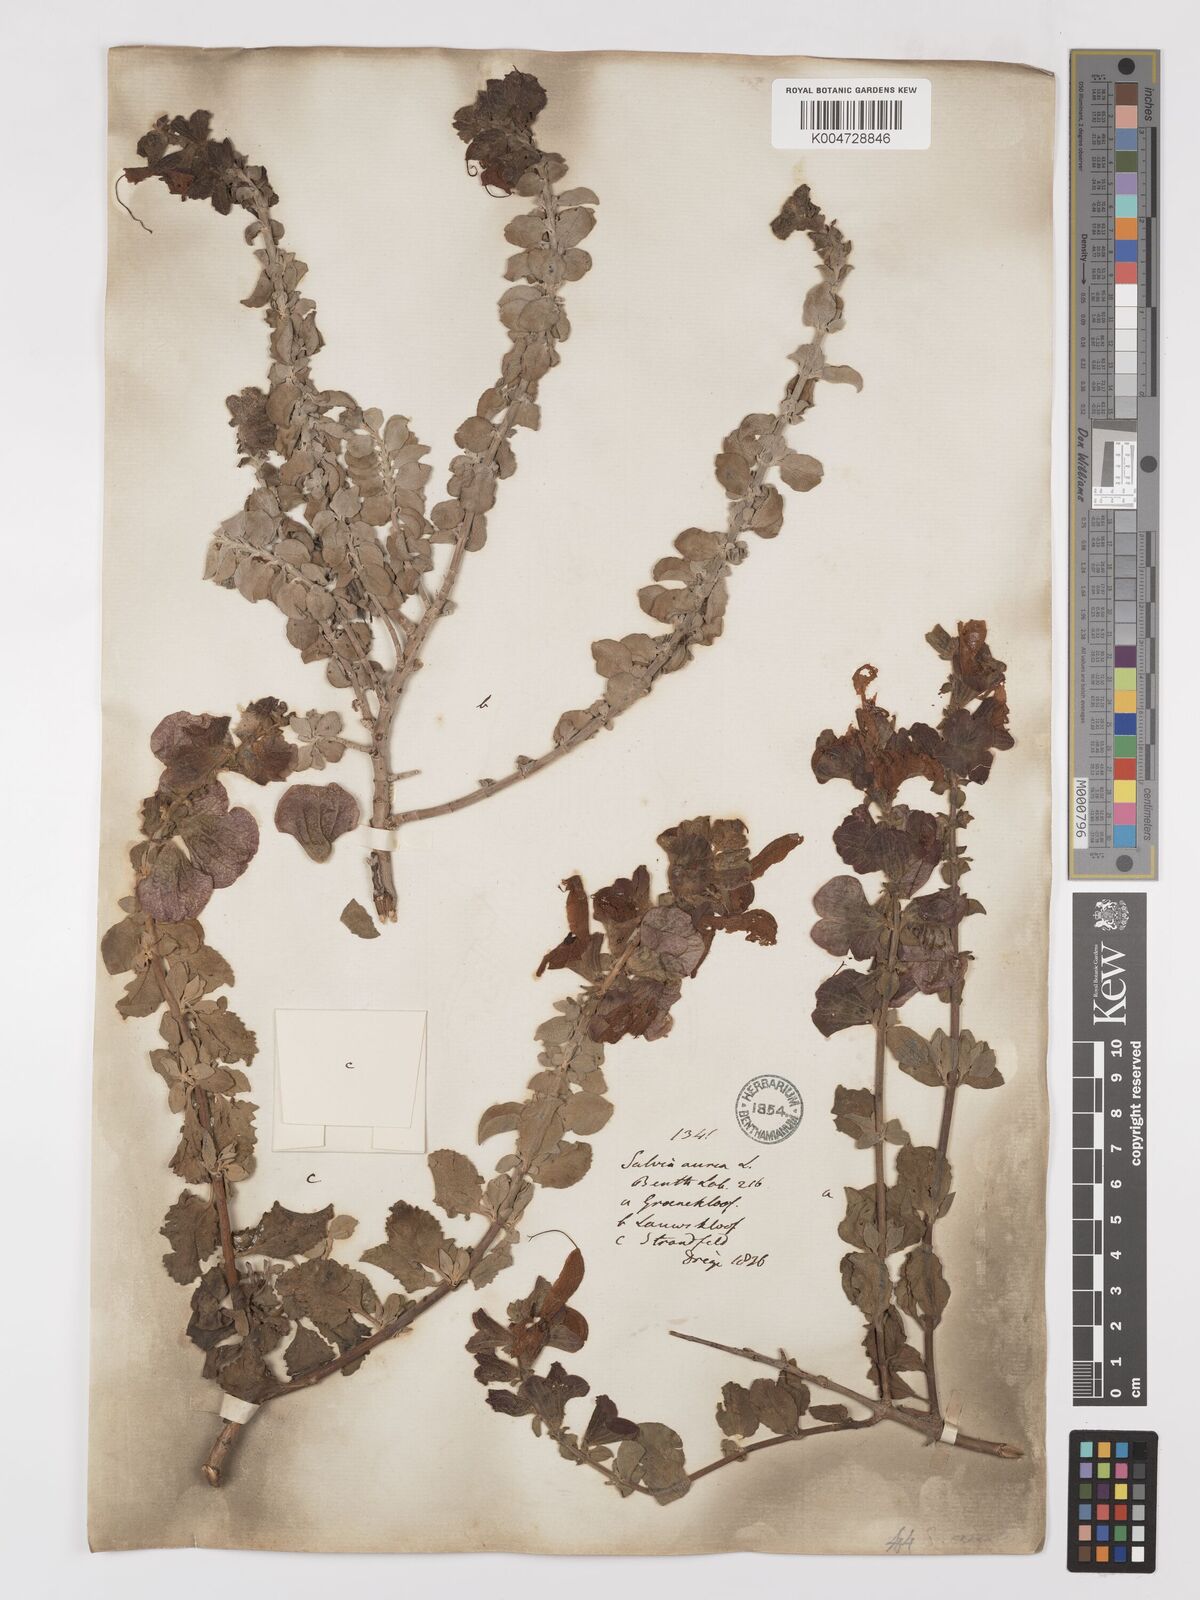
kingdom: Plantae
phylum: Tracheophyta
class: Magnoliopsida
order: Lamiales
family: Lamiaceae
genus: Salvia
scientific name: Salvia aurea
